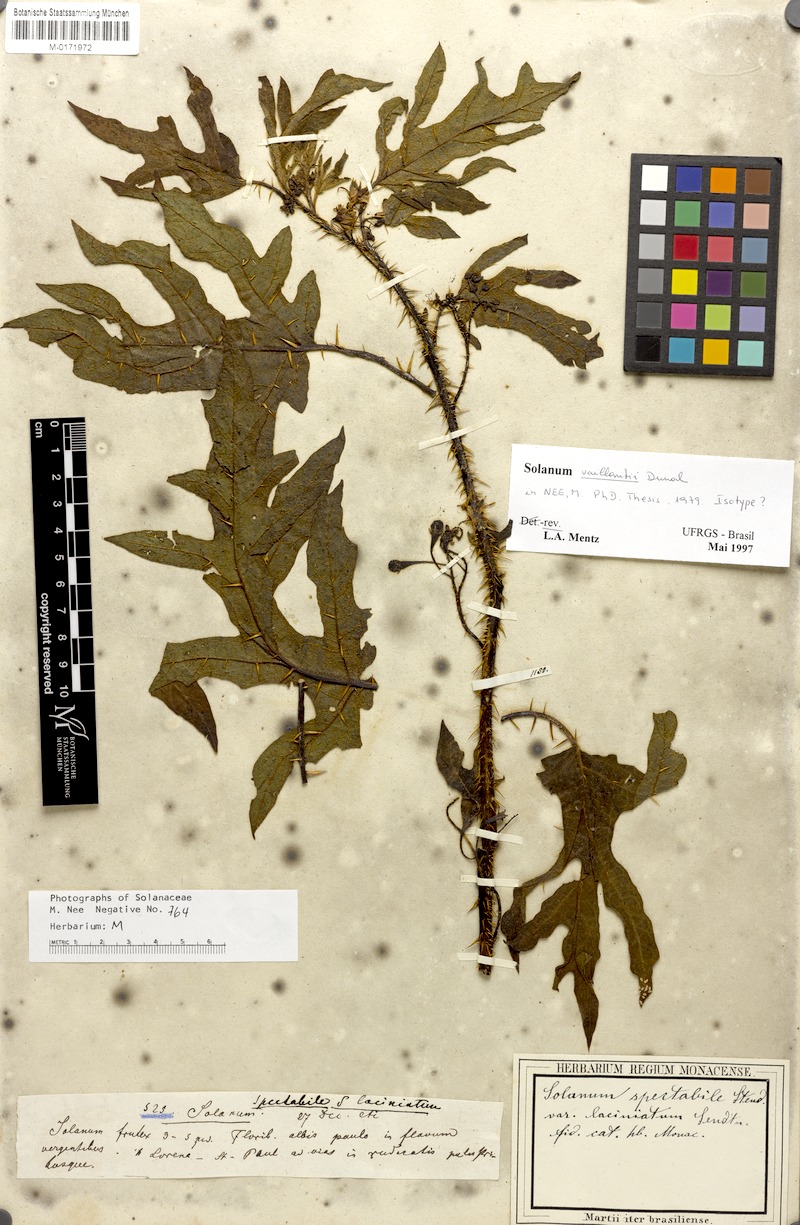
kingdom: Plantae
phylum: Tracheophyta
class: Magnoliopsida
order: Solanales
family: Solanaceae
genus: Solanum
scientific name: Solanum vaillantii
